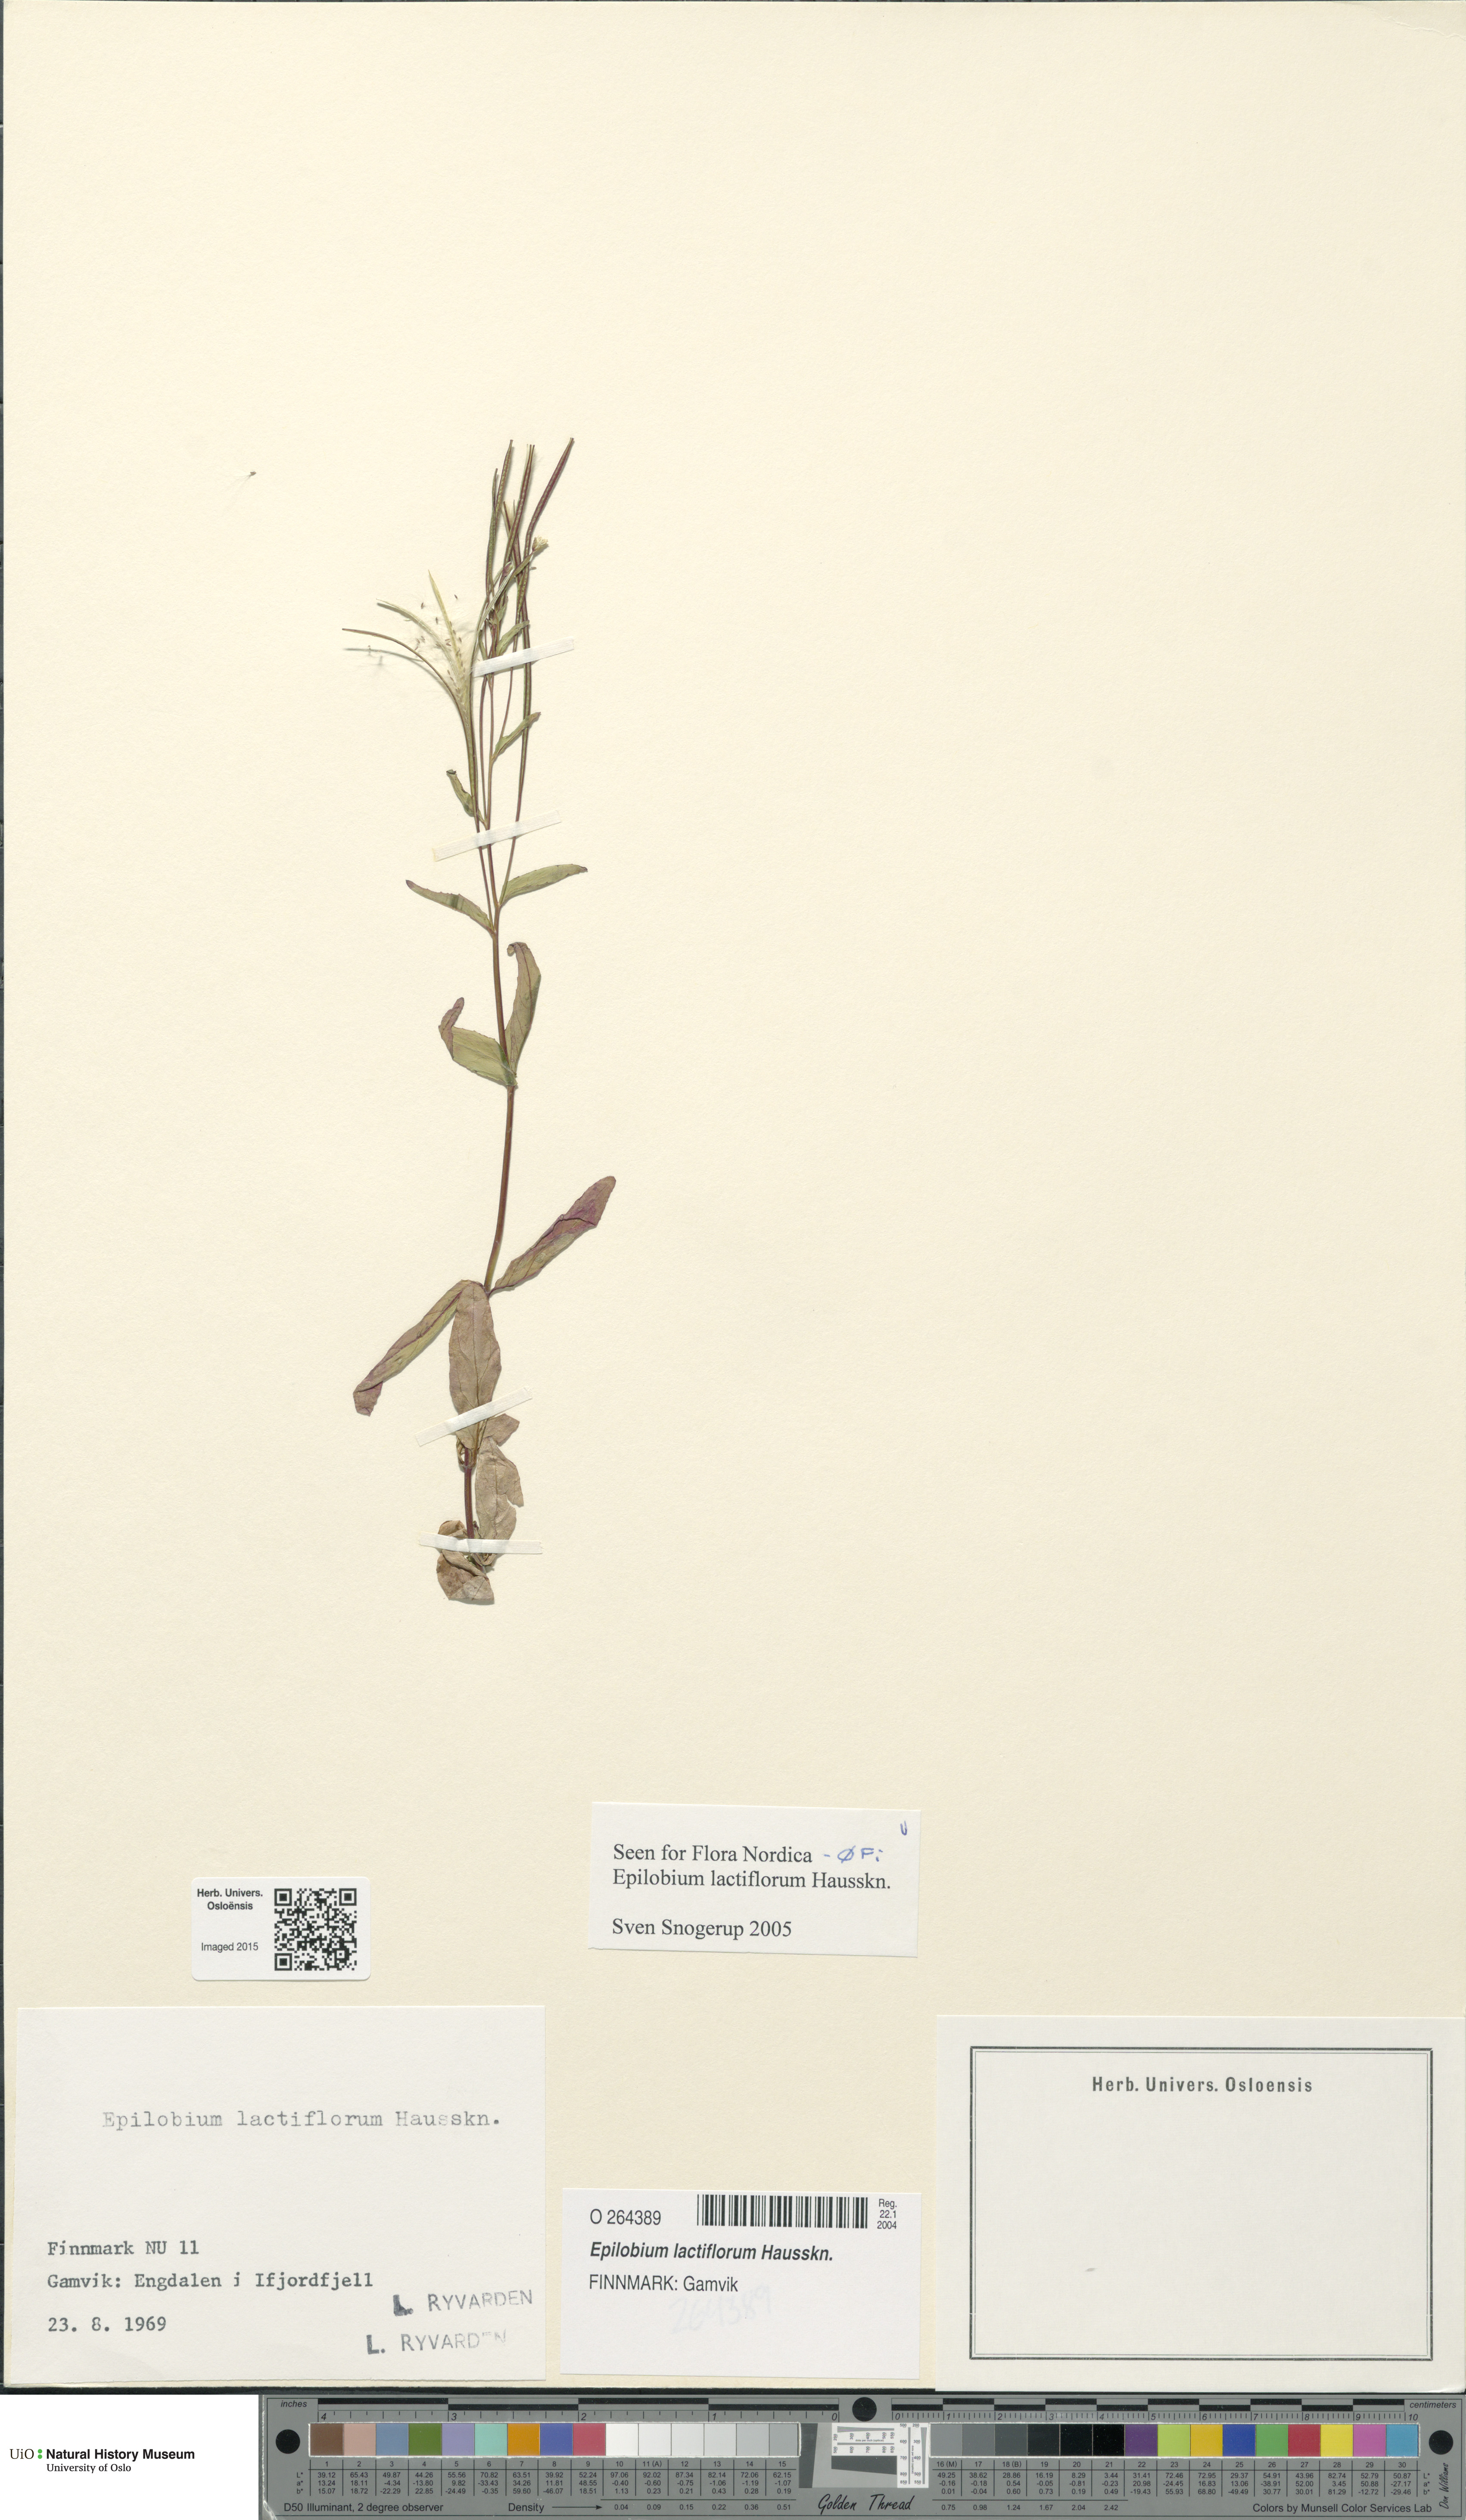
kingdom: Plantae
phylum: Tracheophyta
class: Magnoliopsida
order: Myrtales
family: Onagraceae
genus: Epilobium
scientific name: Epilobium lactiflorum
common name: Milkflower willowherb
